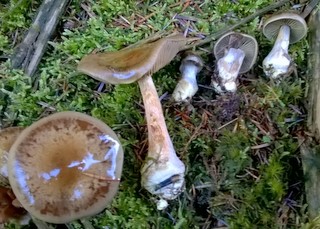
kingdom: Fungi
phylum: Basidiomycota
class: Agaricomycetes
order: Agaricales
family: Cortinariaceae
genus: Thaxterogaster
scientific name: Thaxterogaster scaurus
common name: sump-slørhat
